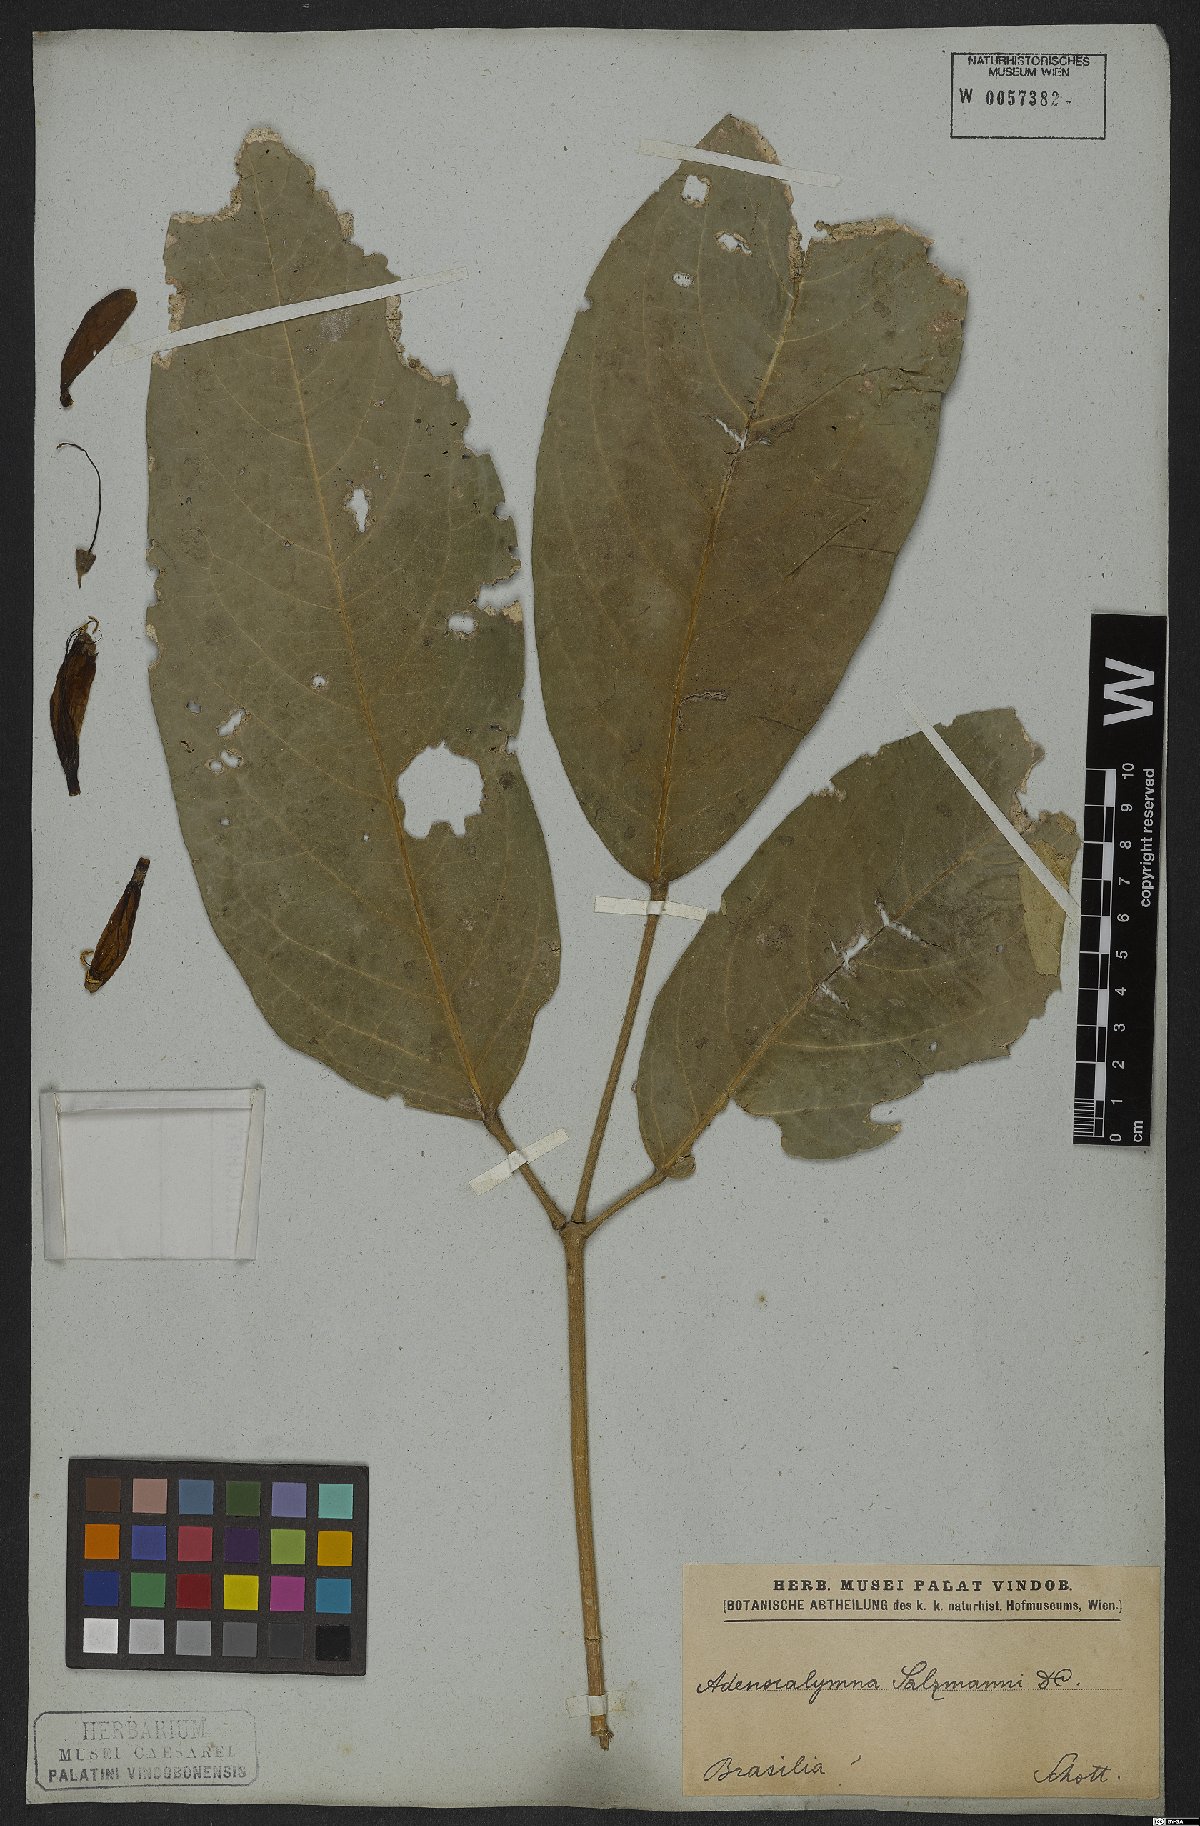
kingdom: Plantae
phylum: Tracheophyta
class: Magnoliopsida
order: Lamiales
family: Bignoniaceae
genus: Adenocalymma
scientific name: Adenocalymma coriaceum
